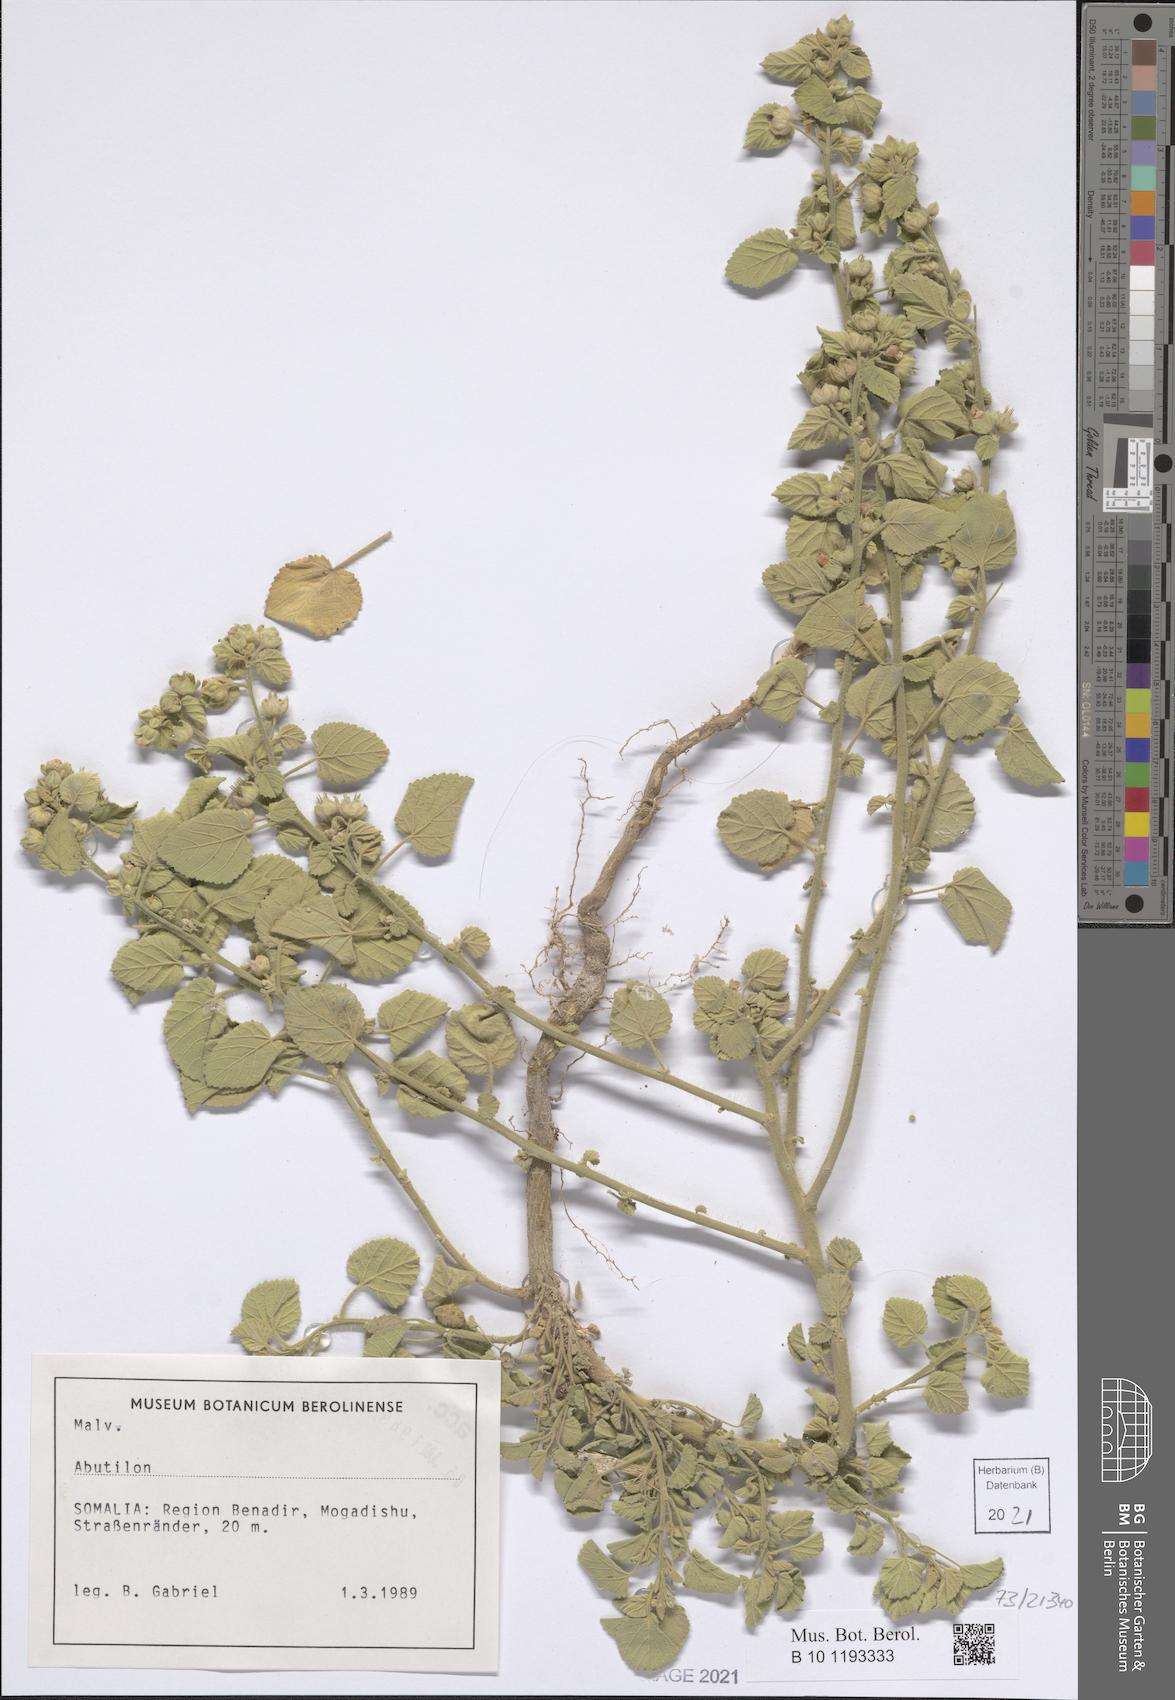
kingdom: Plantae
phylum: Tracheophyta
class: Magnoliopsida
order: Malvales
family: Malvaceae
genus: Abutilon
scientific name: Abutilon
